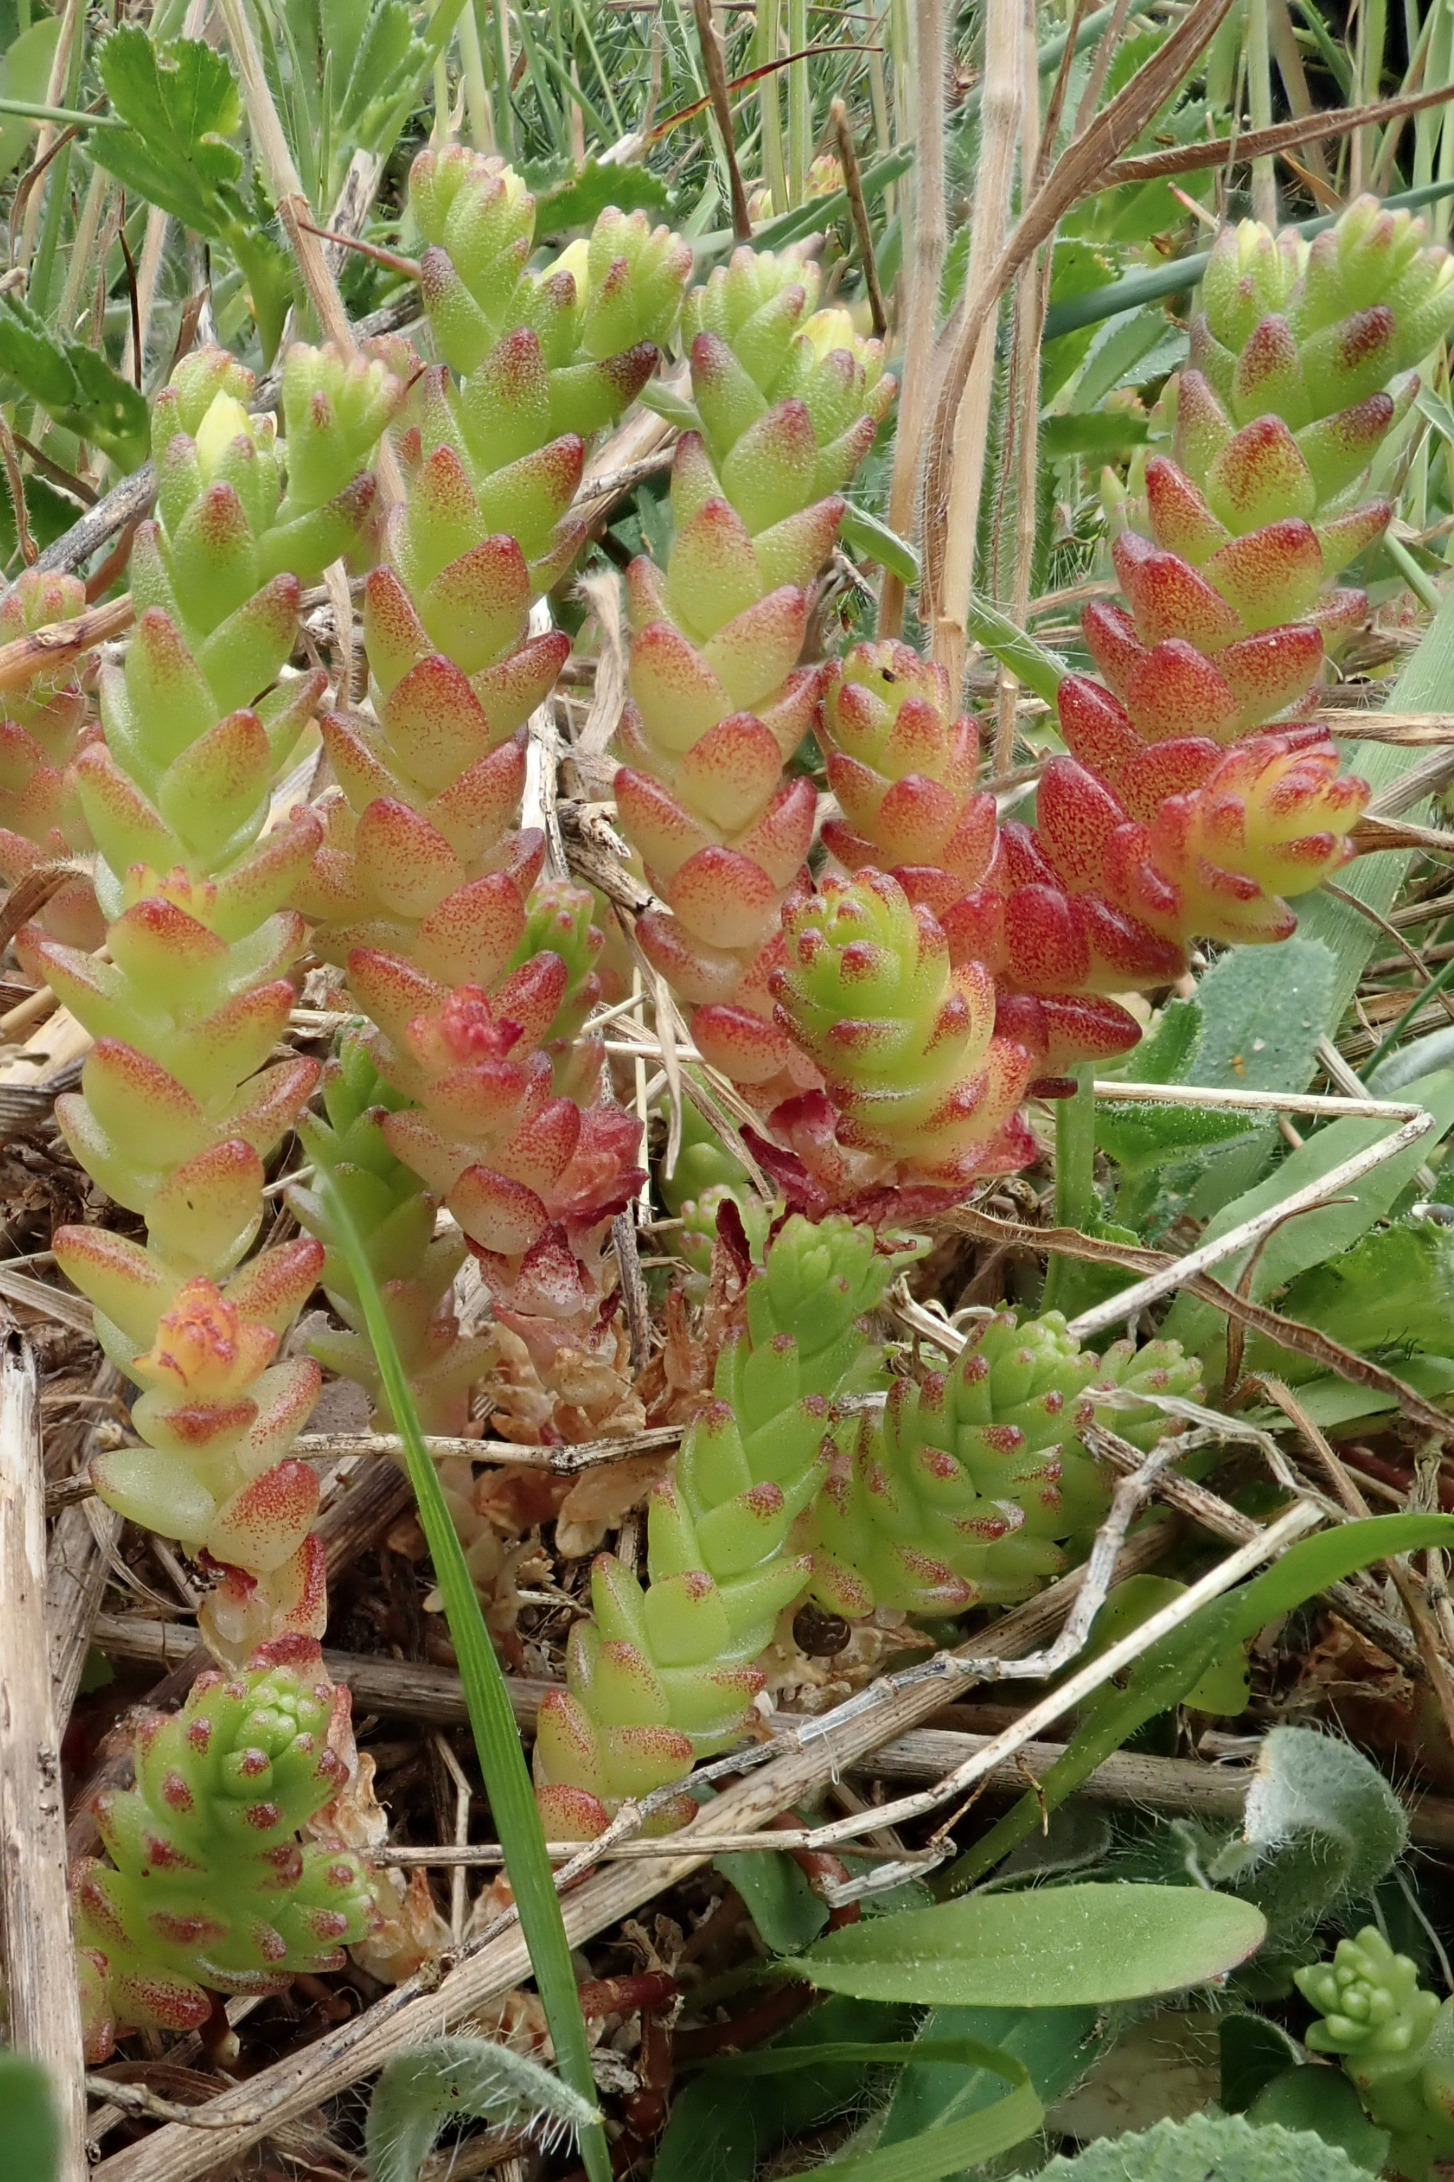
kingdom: Plantae
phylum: Tracheophyta
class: Magnoliopsida
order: Saxifragales
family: Crassulaceae
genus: Sedum
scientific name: Sedum acre
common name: Bidende stenurt
